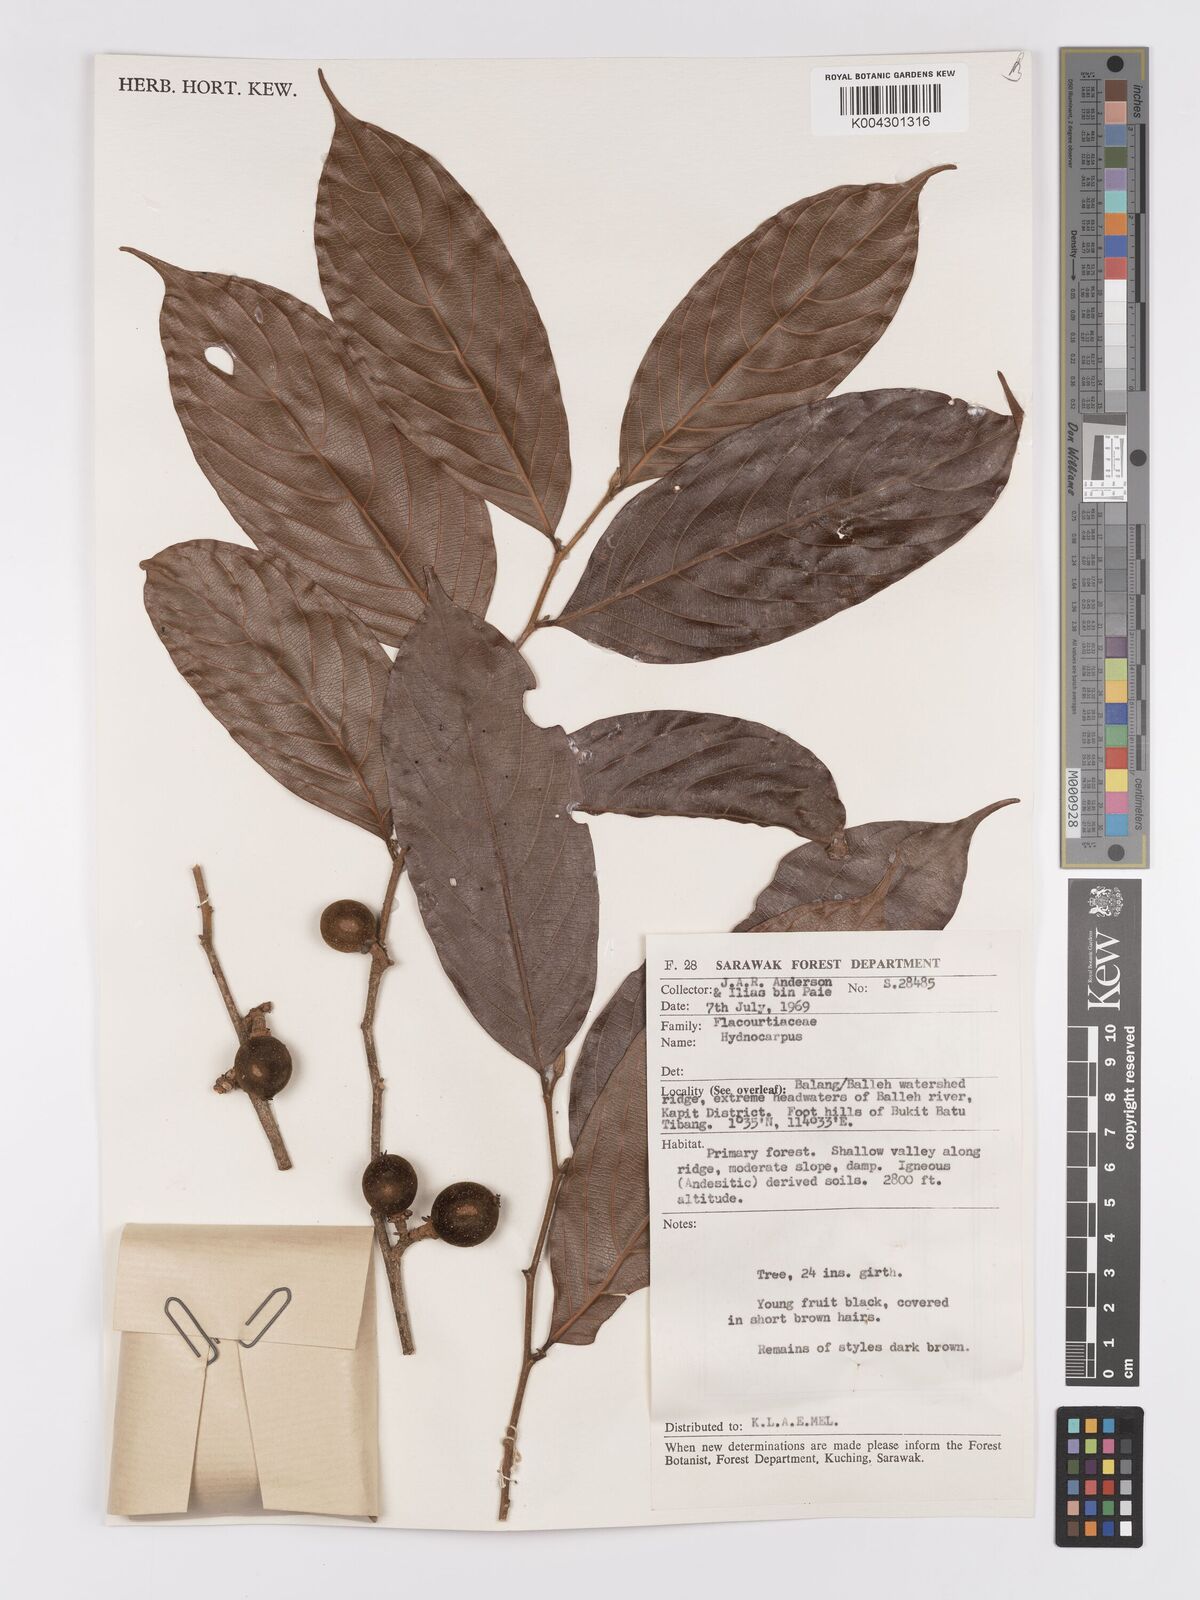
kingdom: Plantae
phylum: Tracheophyta
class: Magnoliopsida
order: Malpighiales
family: Achariaceae
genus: Hydnocarpus
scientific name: Hydnocarpus
